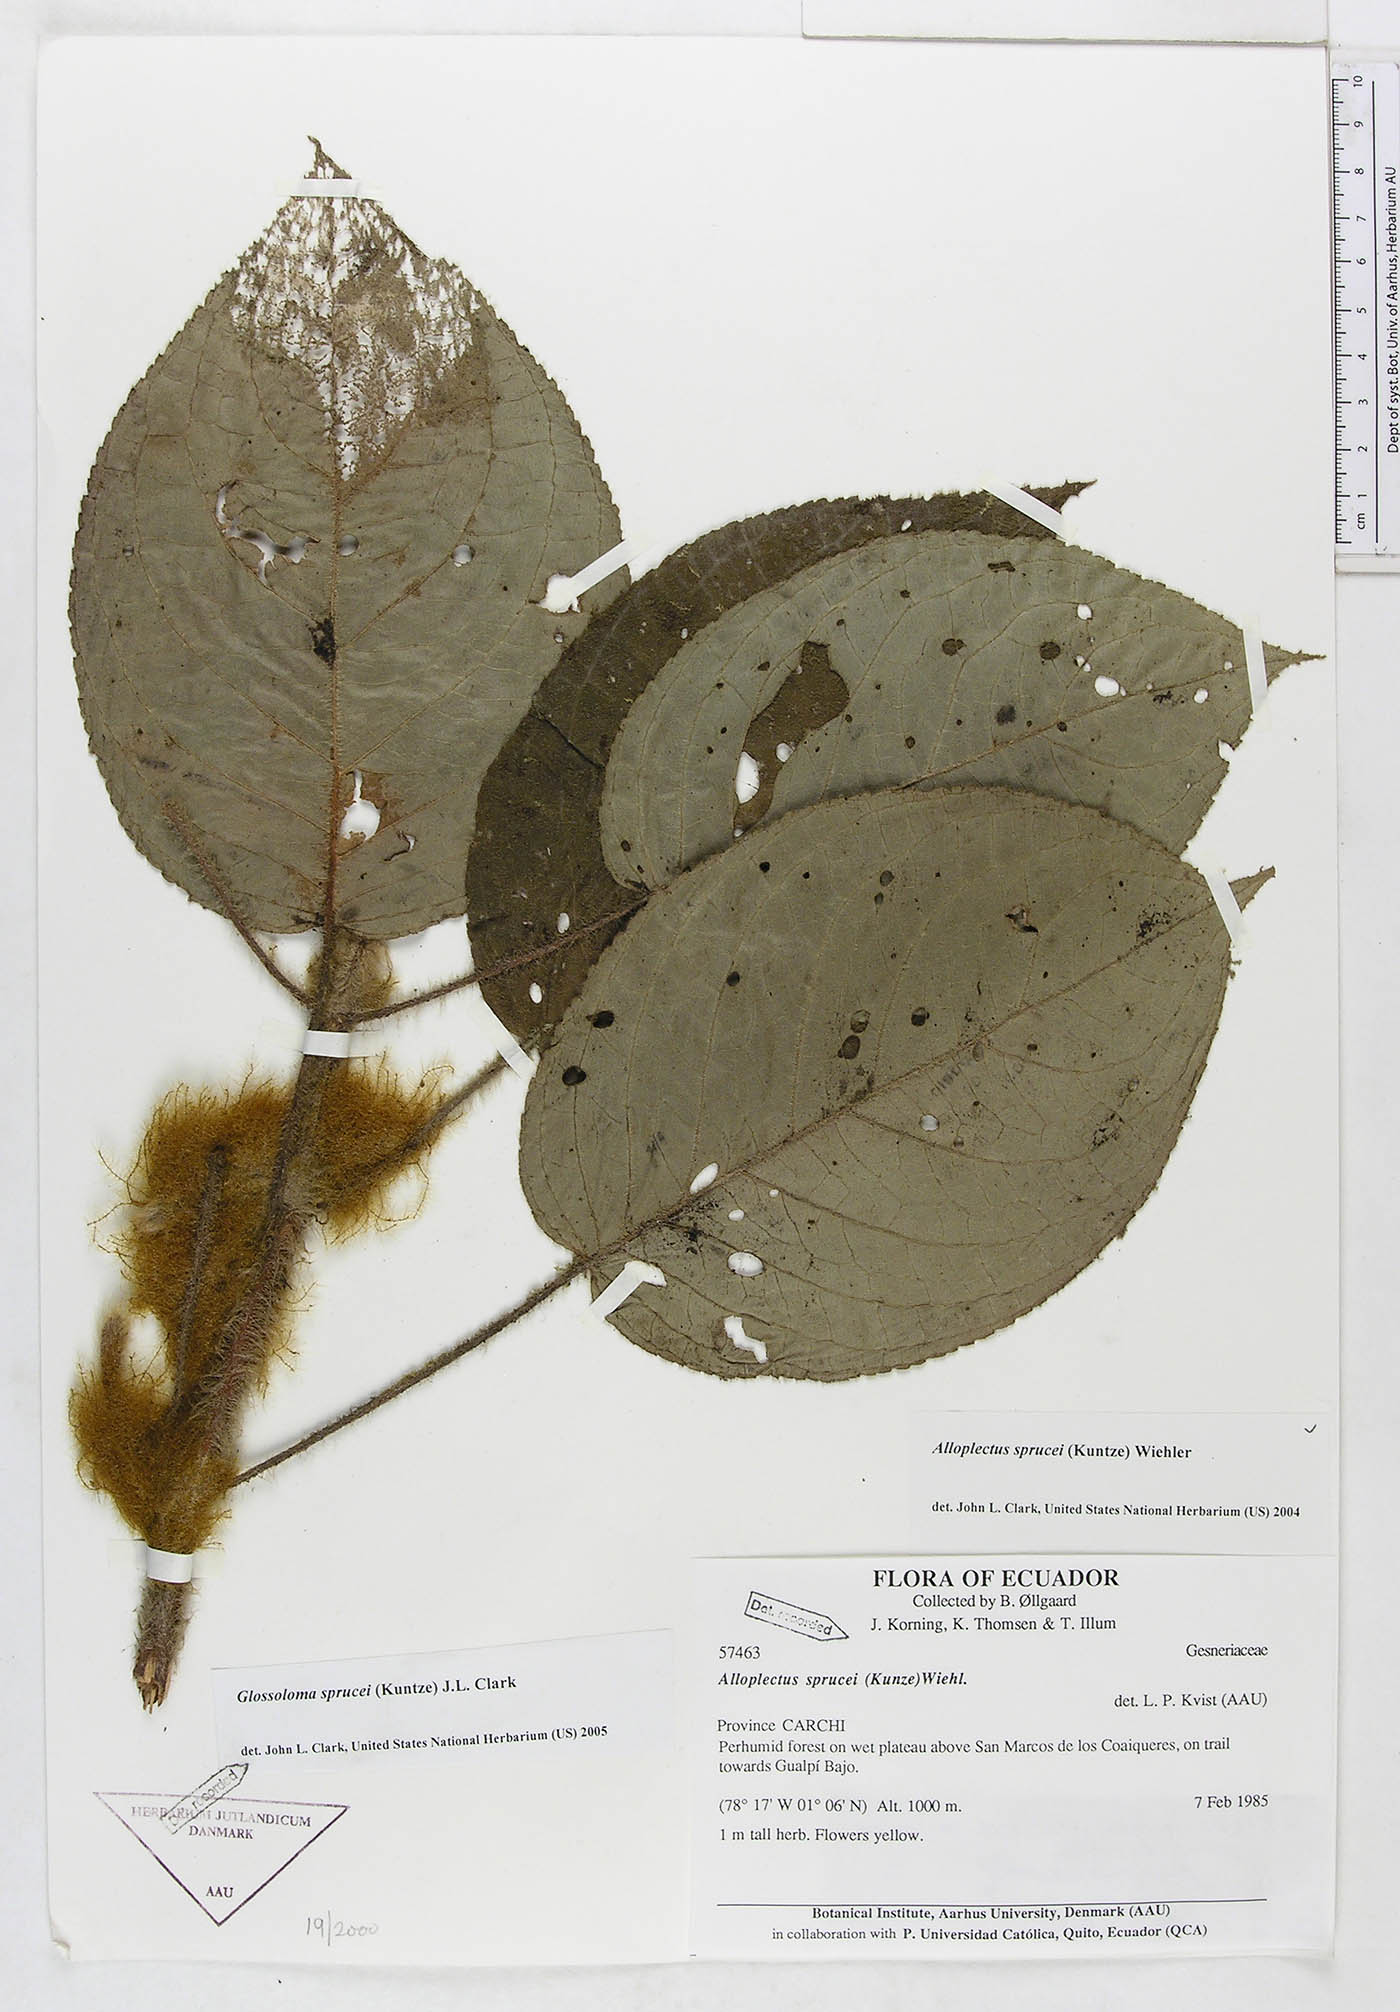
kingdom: Plantae
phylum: Tracheophyta
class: Magnoliopsida
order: Lamiales
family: Gesneriaceae
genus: Glossoloma
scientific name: Glossoloma sprucei
